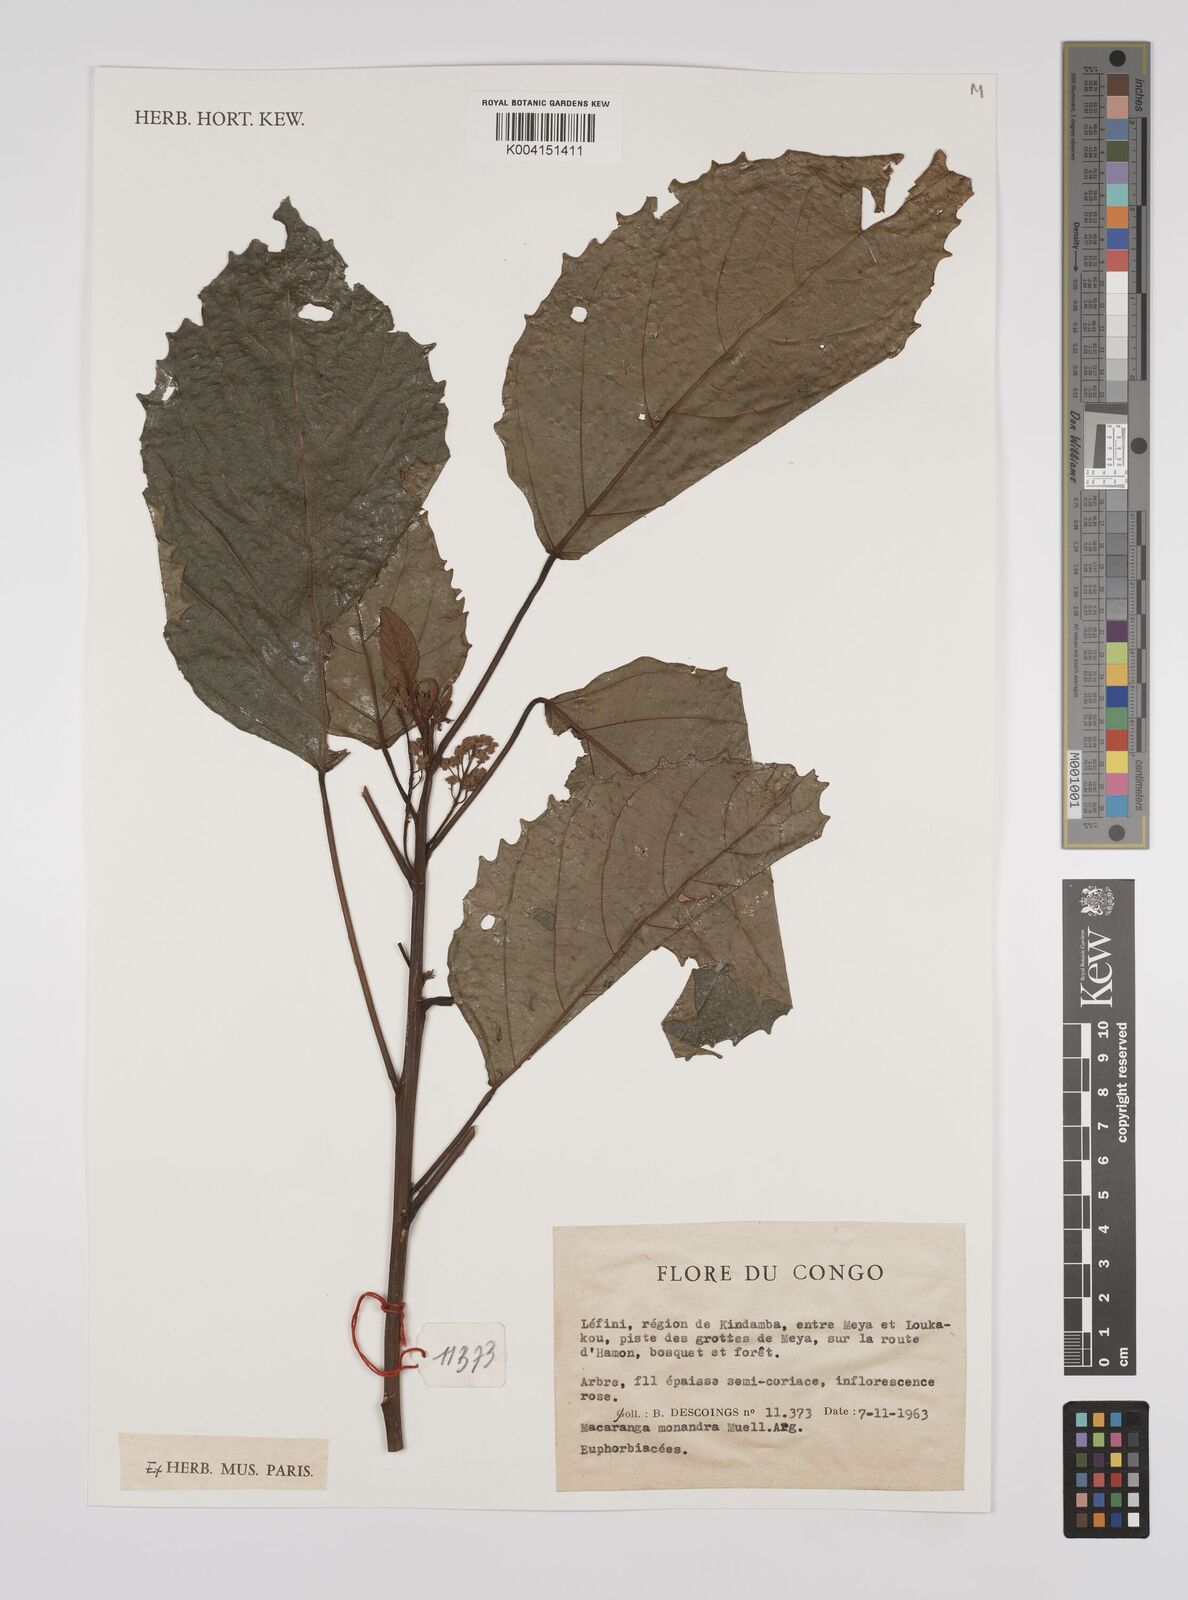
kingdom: Plantae
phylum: Tracheophyta
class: Magnoliopsida
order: Malpighiales
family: Euphorbiaceae
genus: Macaranga
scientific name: Macaranga monandra
